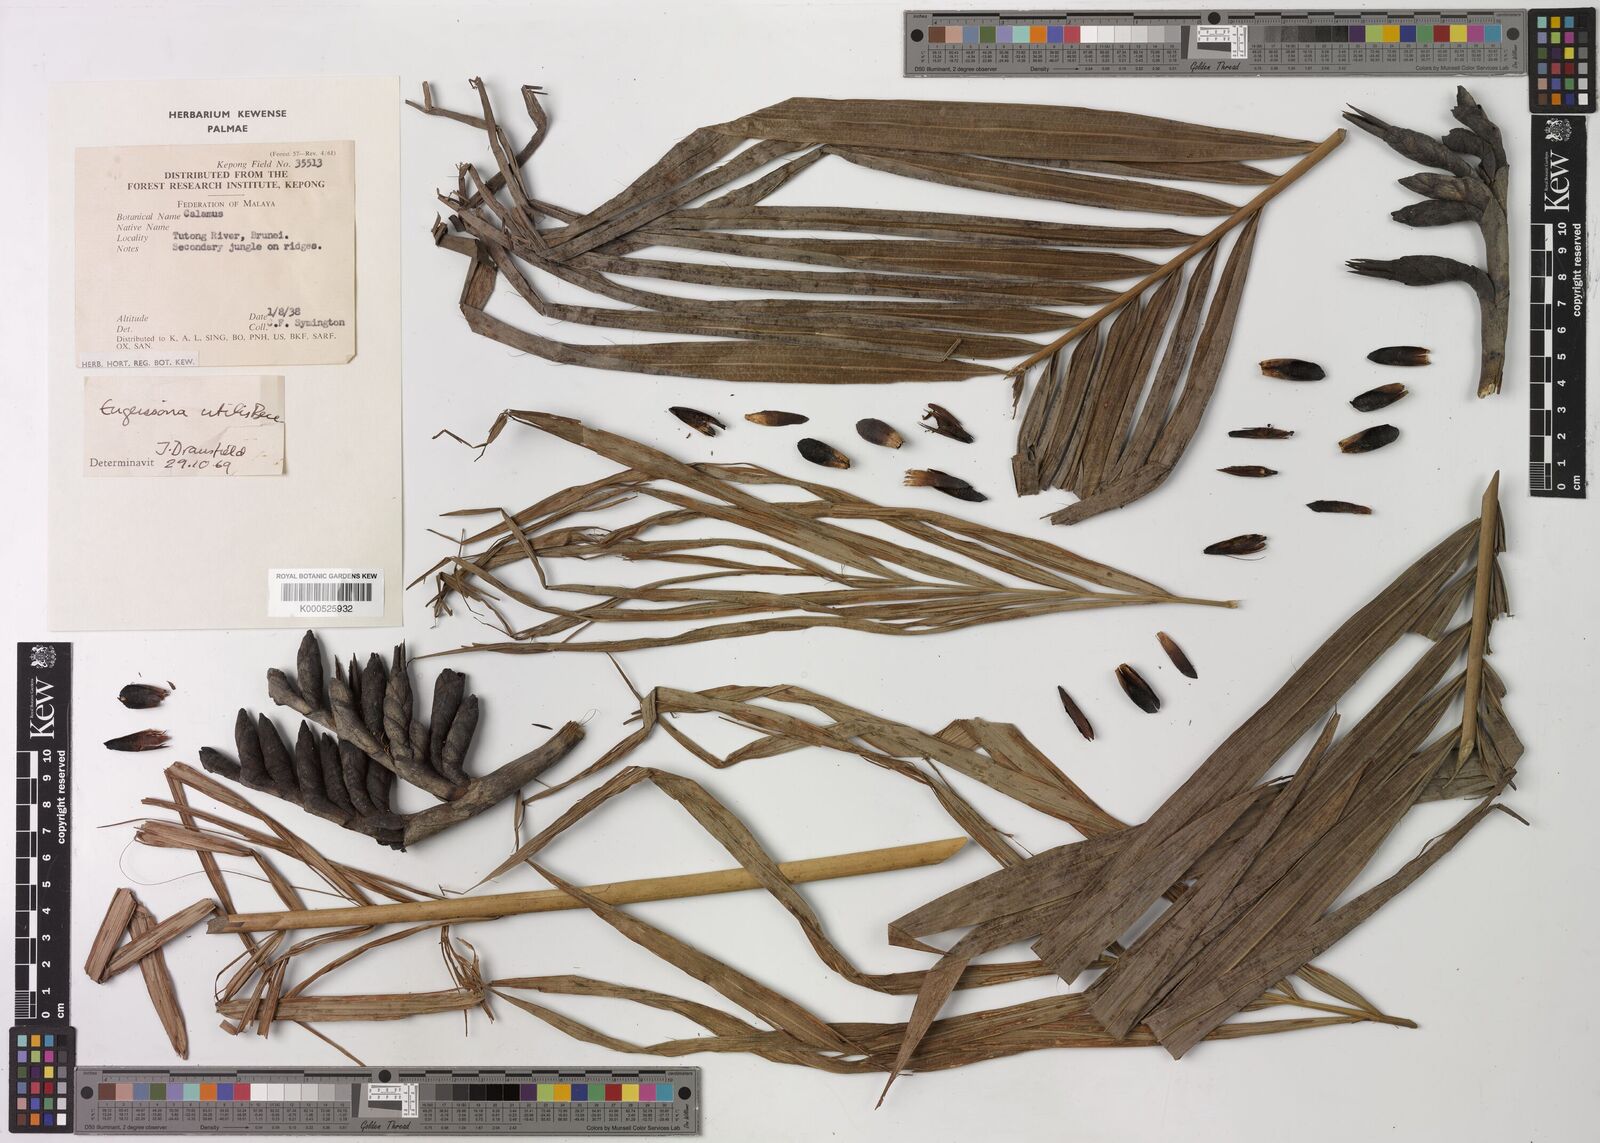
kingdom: Plantae
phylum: Tracheophyta
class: Liliopsida
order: Arecales
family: Arecaceae
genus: Eugeissona
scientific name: Eugeissona utilis
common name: Wild bornean sago palm
